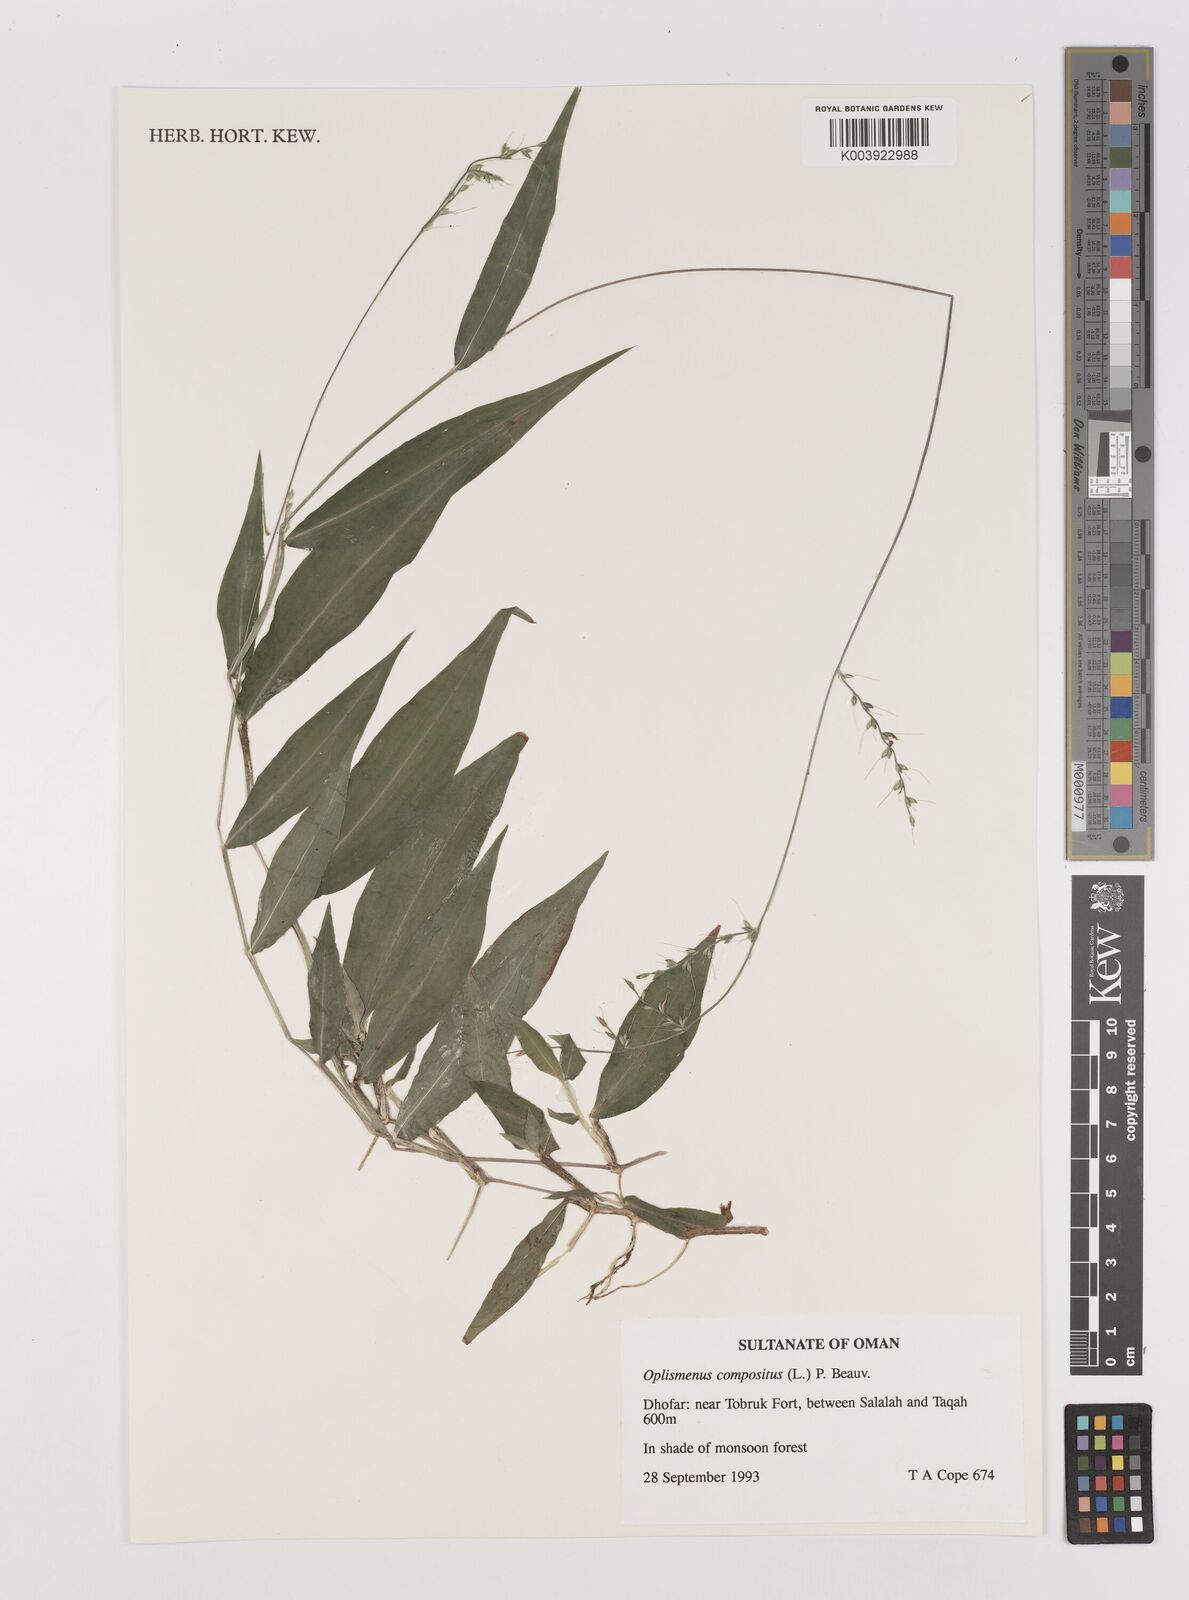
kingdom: Plantae
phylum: Tracheophyta
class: Liliopsida
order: Poales
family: Poaceae
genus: Oplismenus
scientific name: Oplismenus compositus
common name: Running mountain grass
